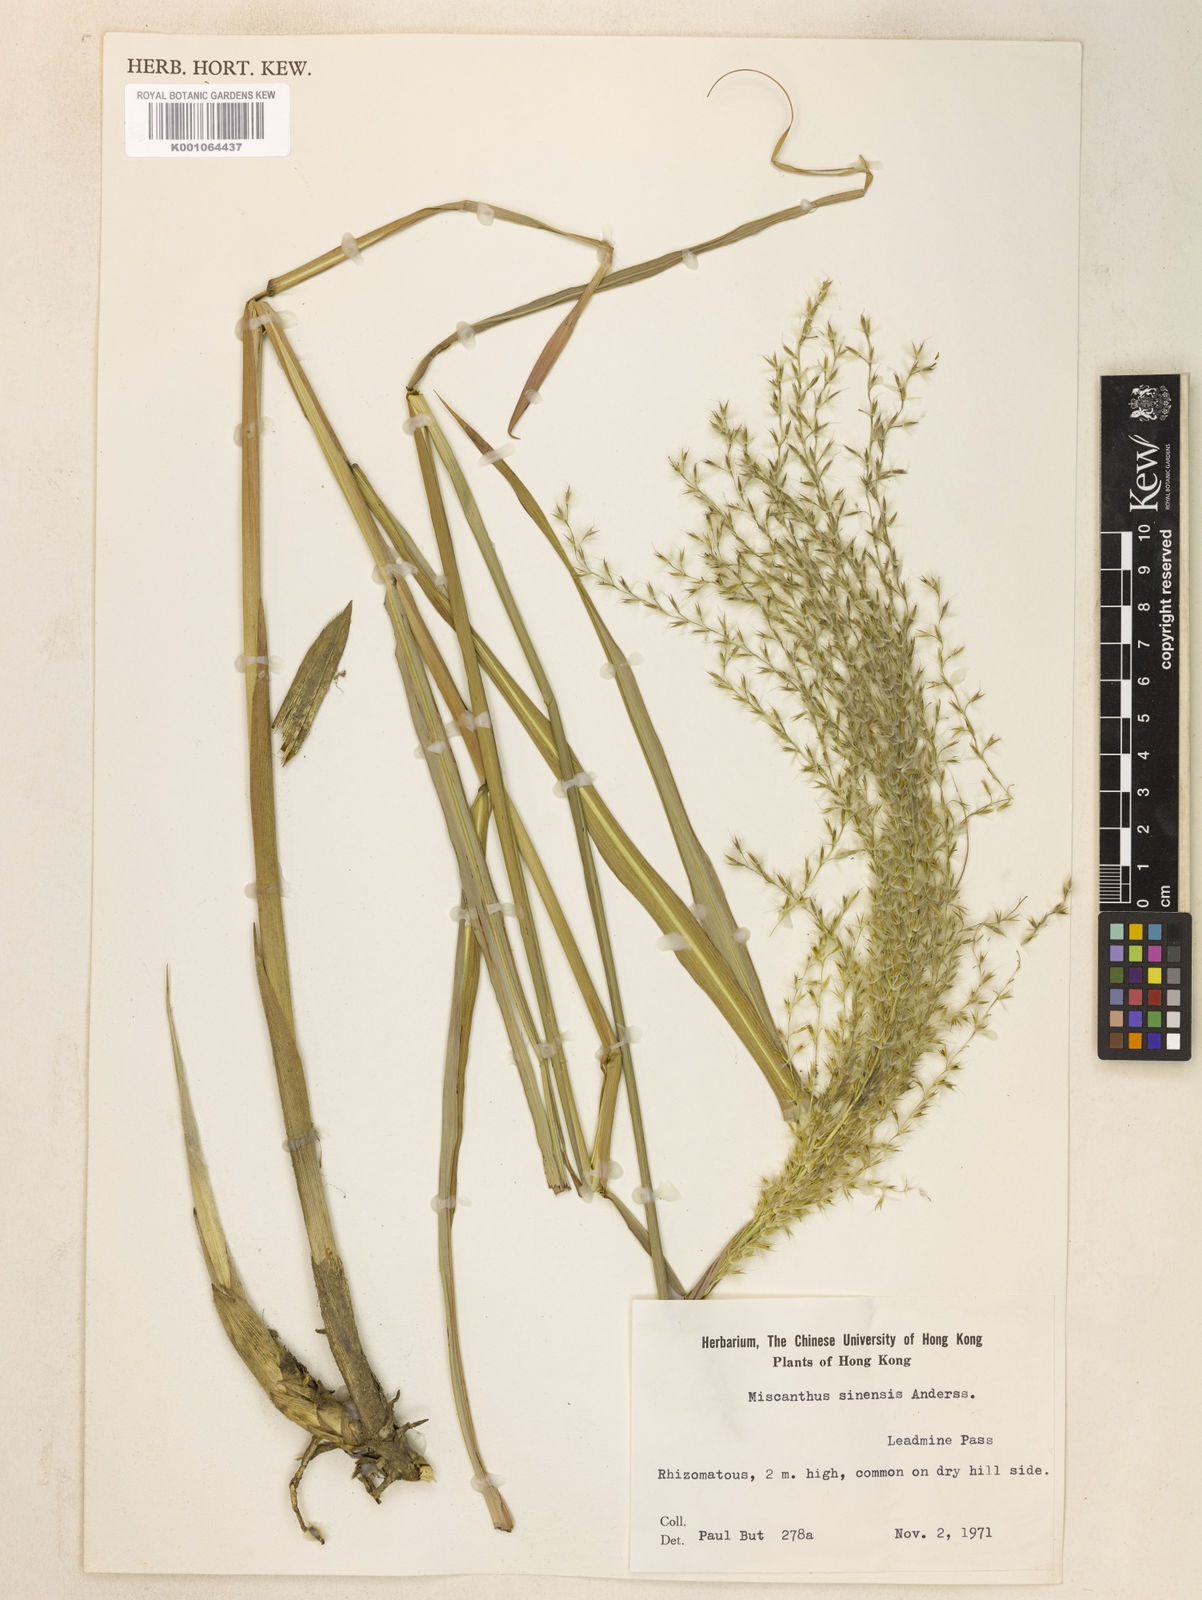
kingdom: Plantae
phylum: Tracheophyta
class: Liliopsida
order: Poales
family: Poaceae
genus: Miscanthus
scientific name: Miscanthus sinensis
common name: Chinese silvergrass
